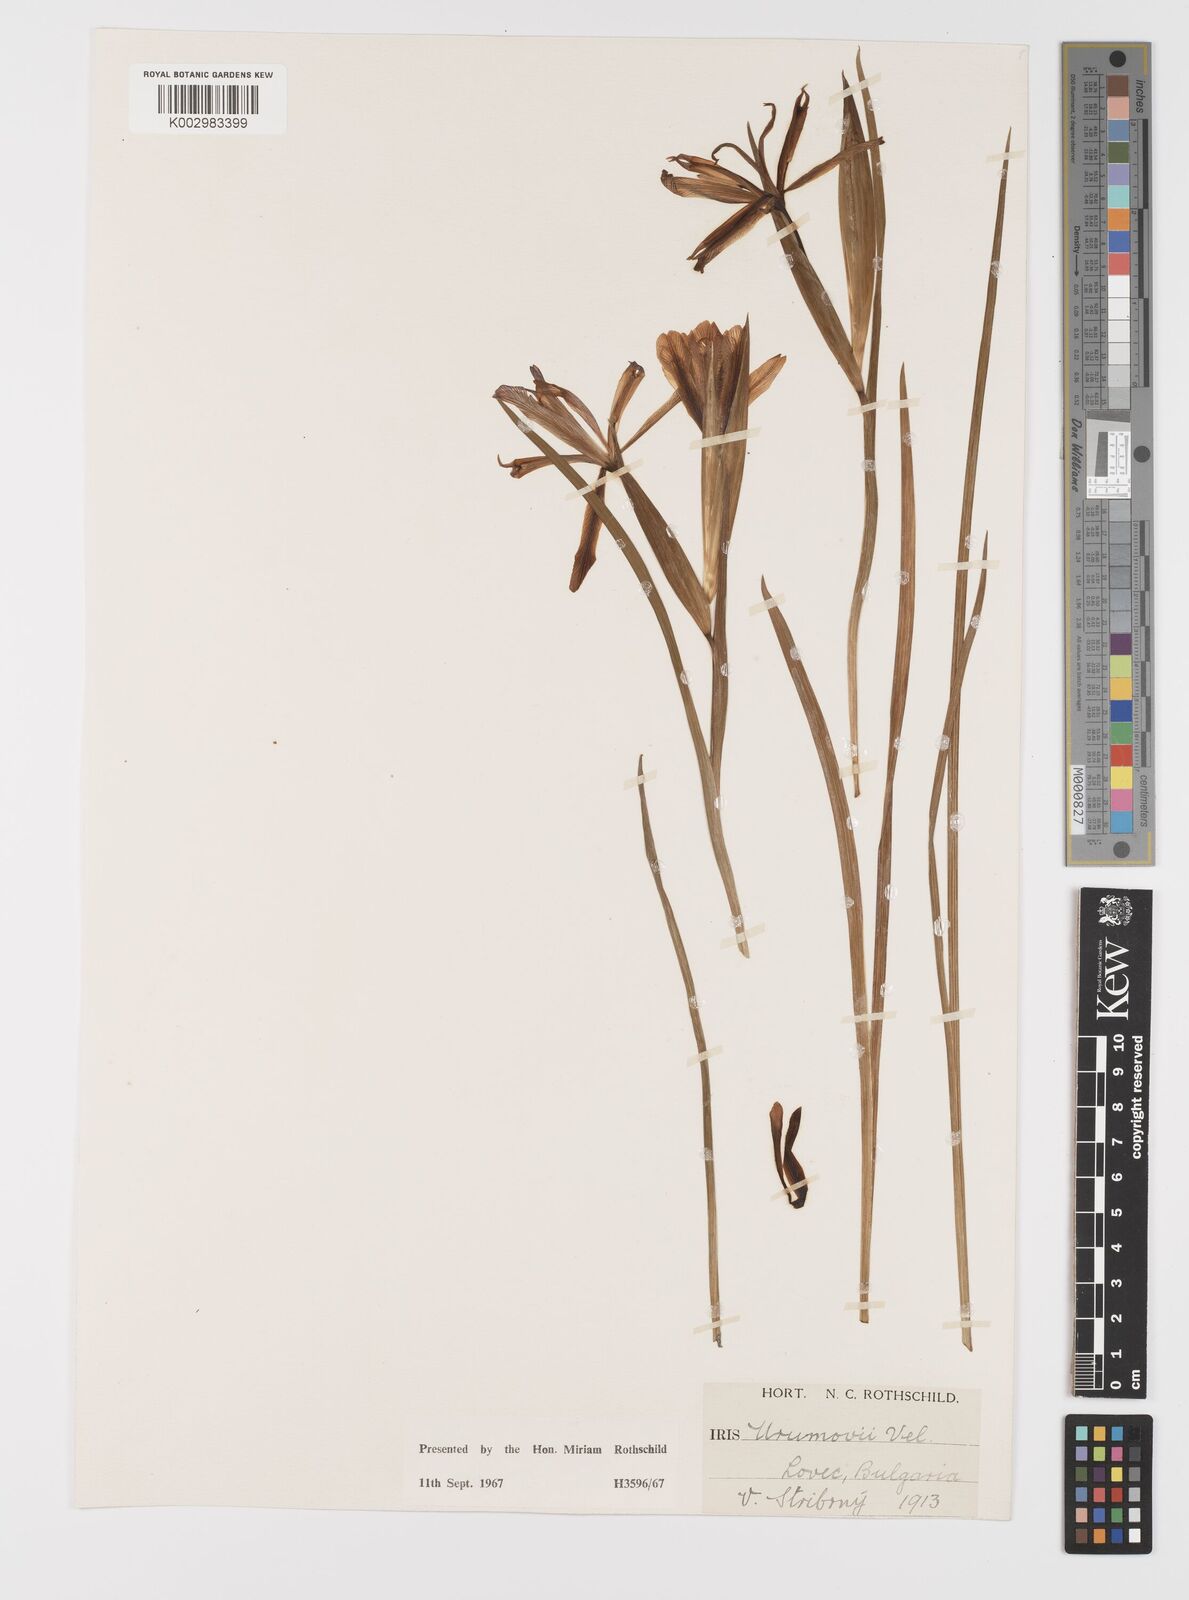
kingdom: Plantae
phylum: Tracheophyta
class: Liliopsida
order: Asparagales
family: Iridaceae
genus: Iris
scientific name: Iris sintenisii
